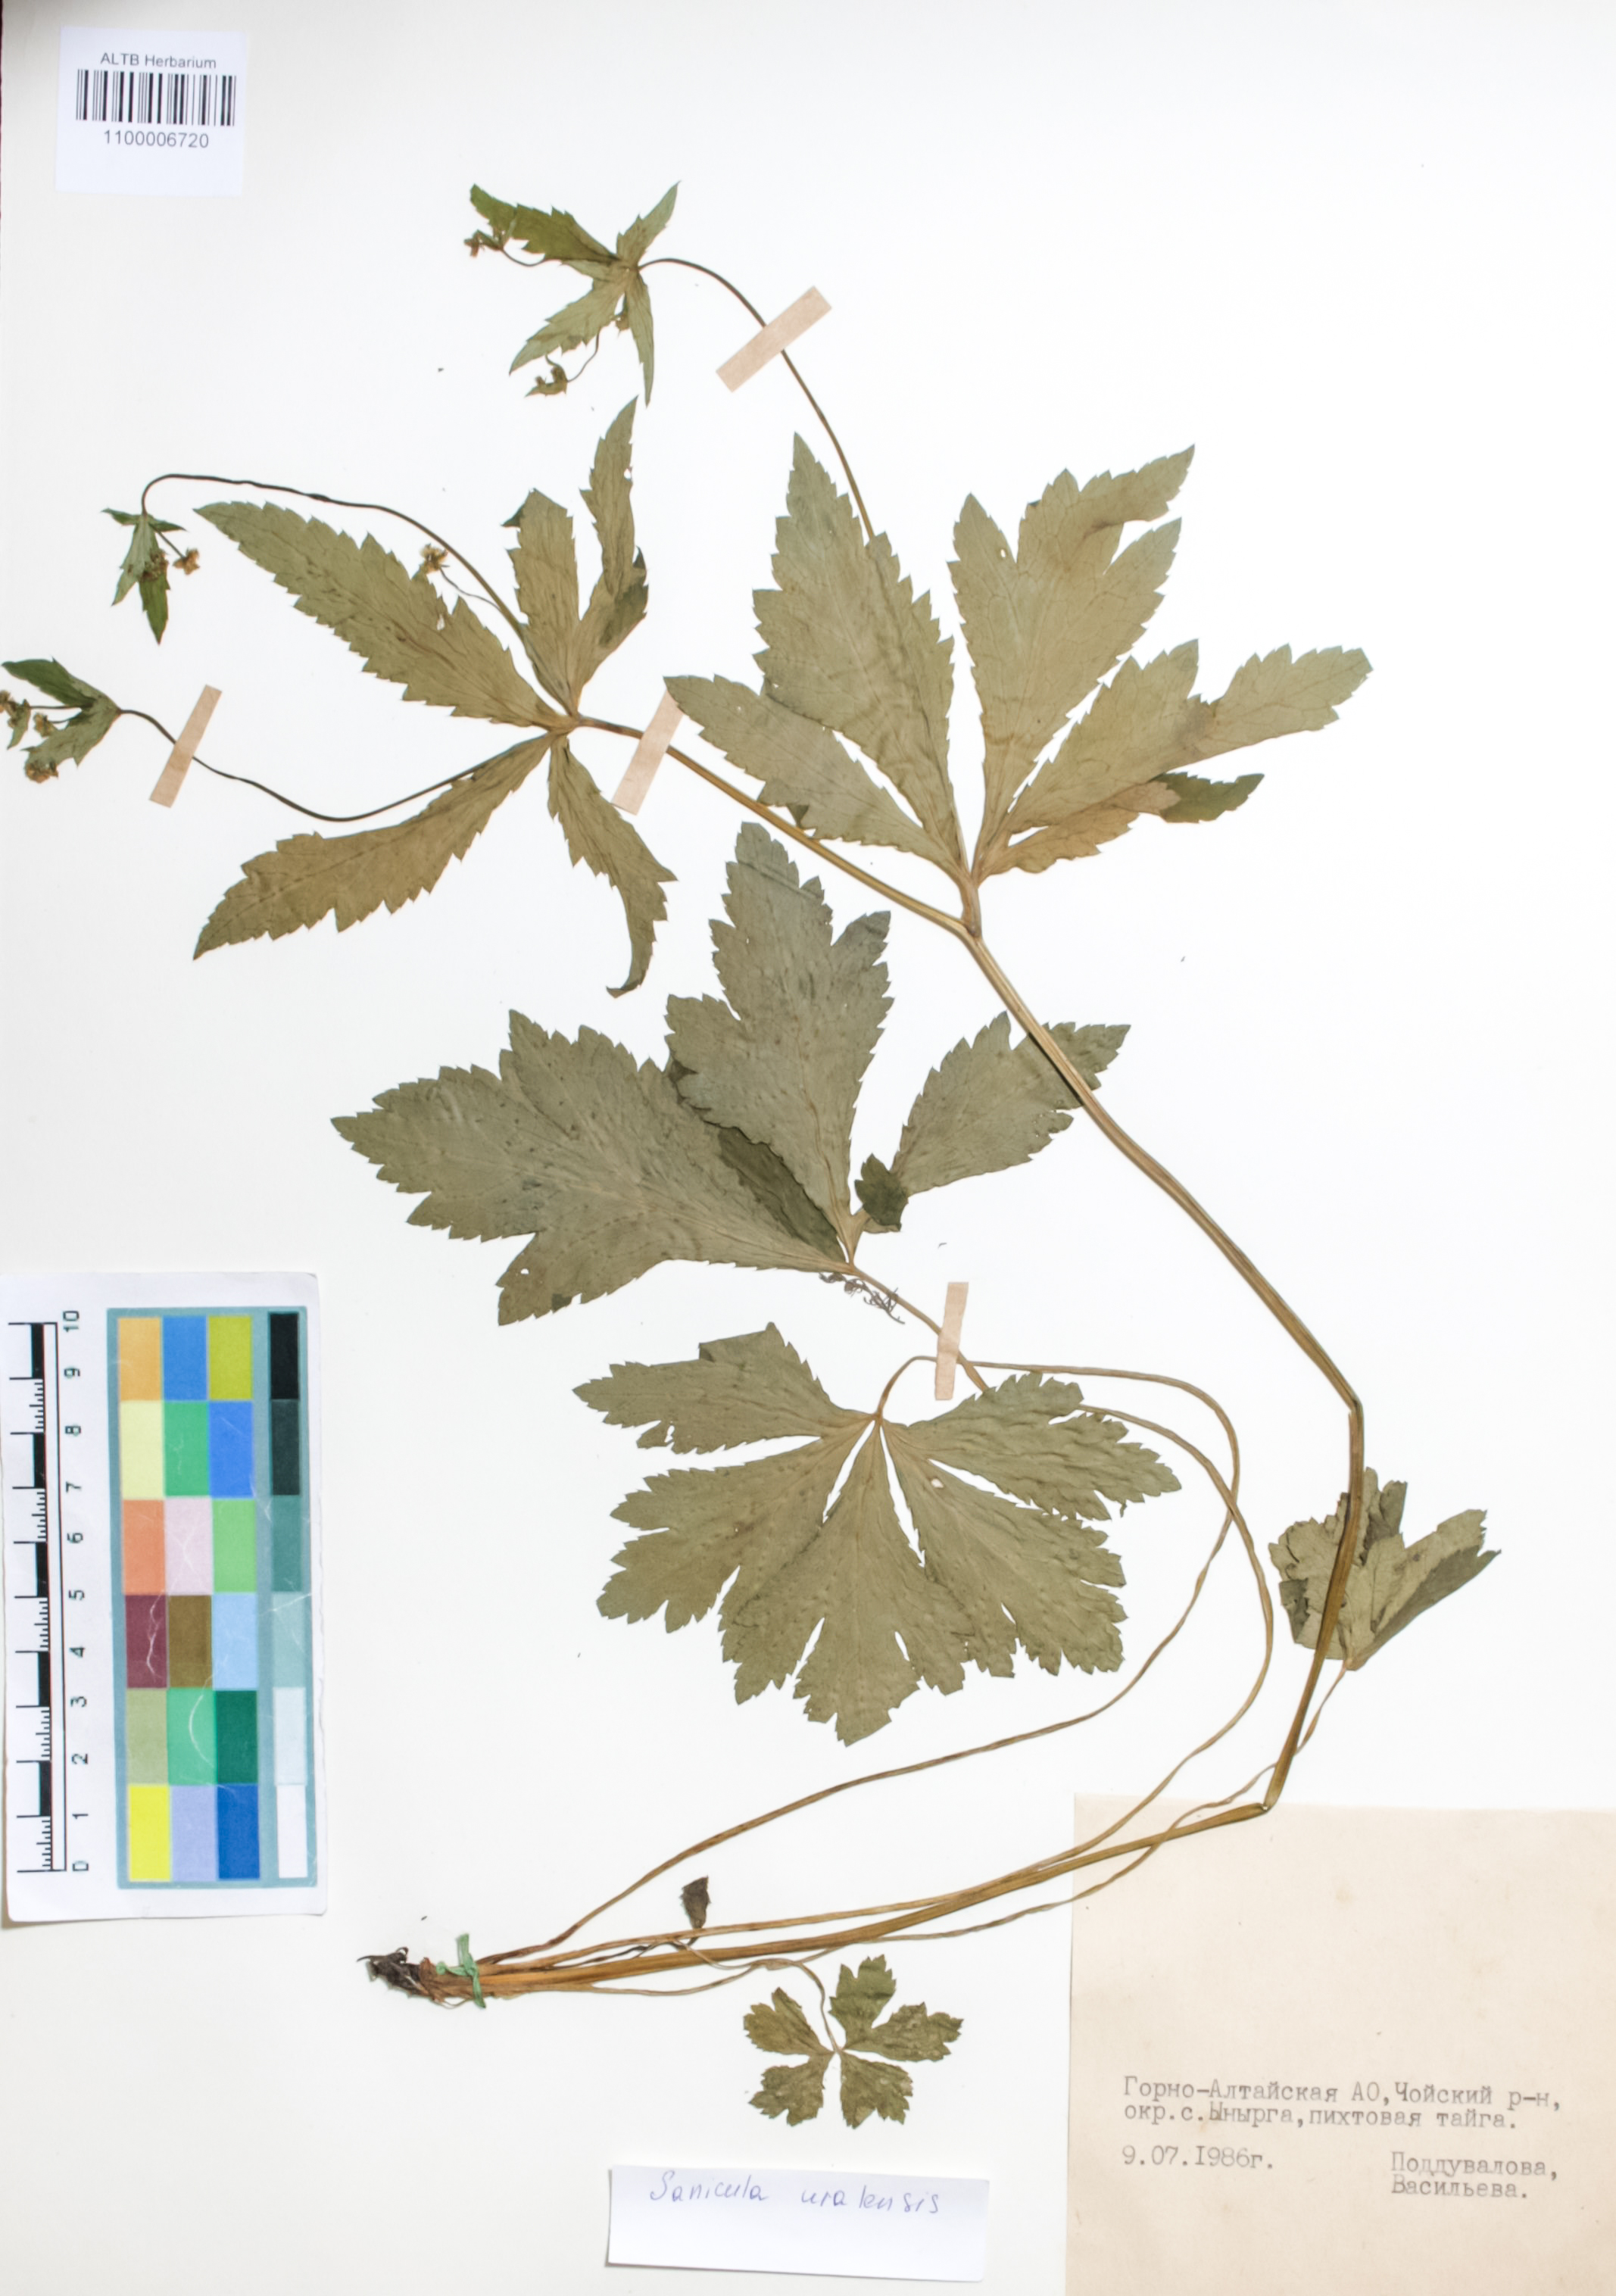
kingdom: Plantae
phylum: Tracheophyta
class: Magnoliopsida
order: Apiales
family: Apiaceae
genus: Sanicula
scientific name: Sanicula giraldii
